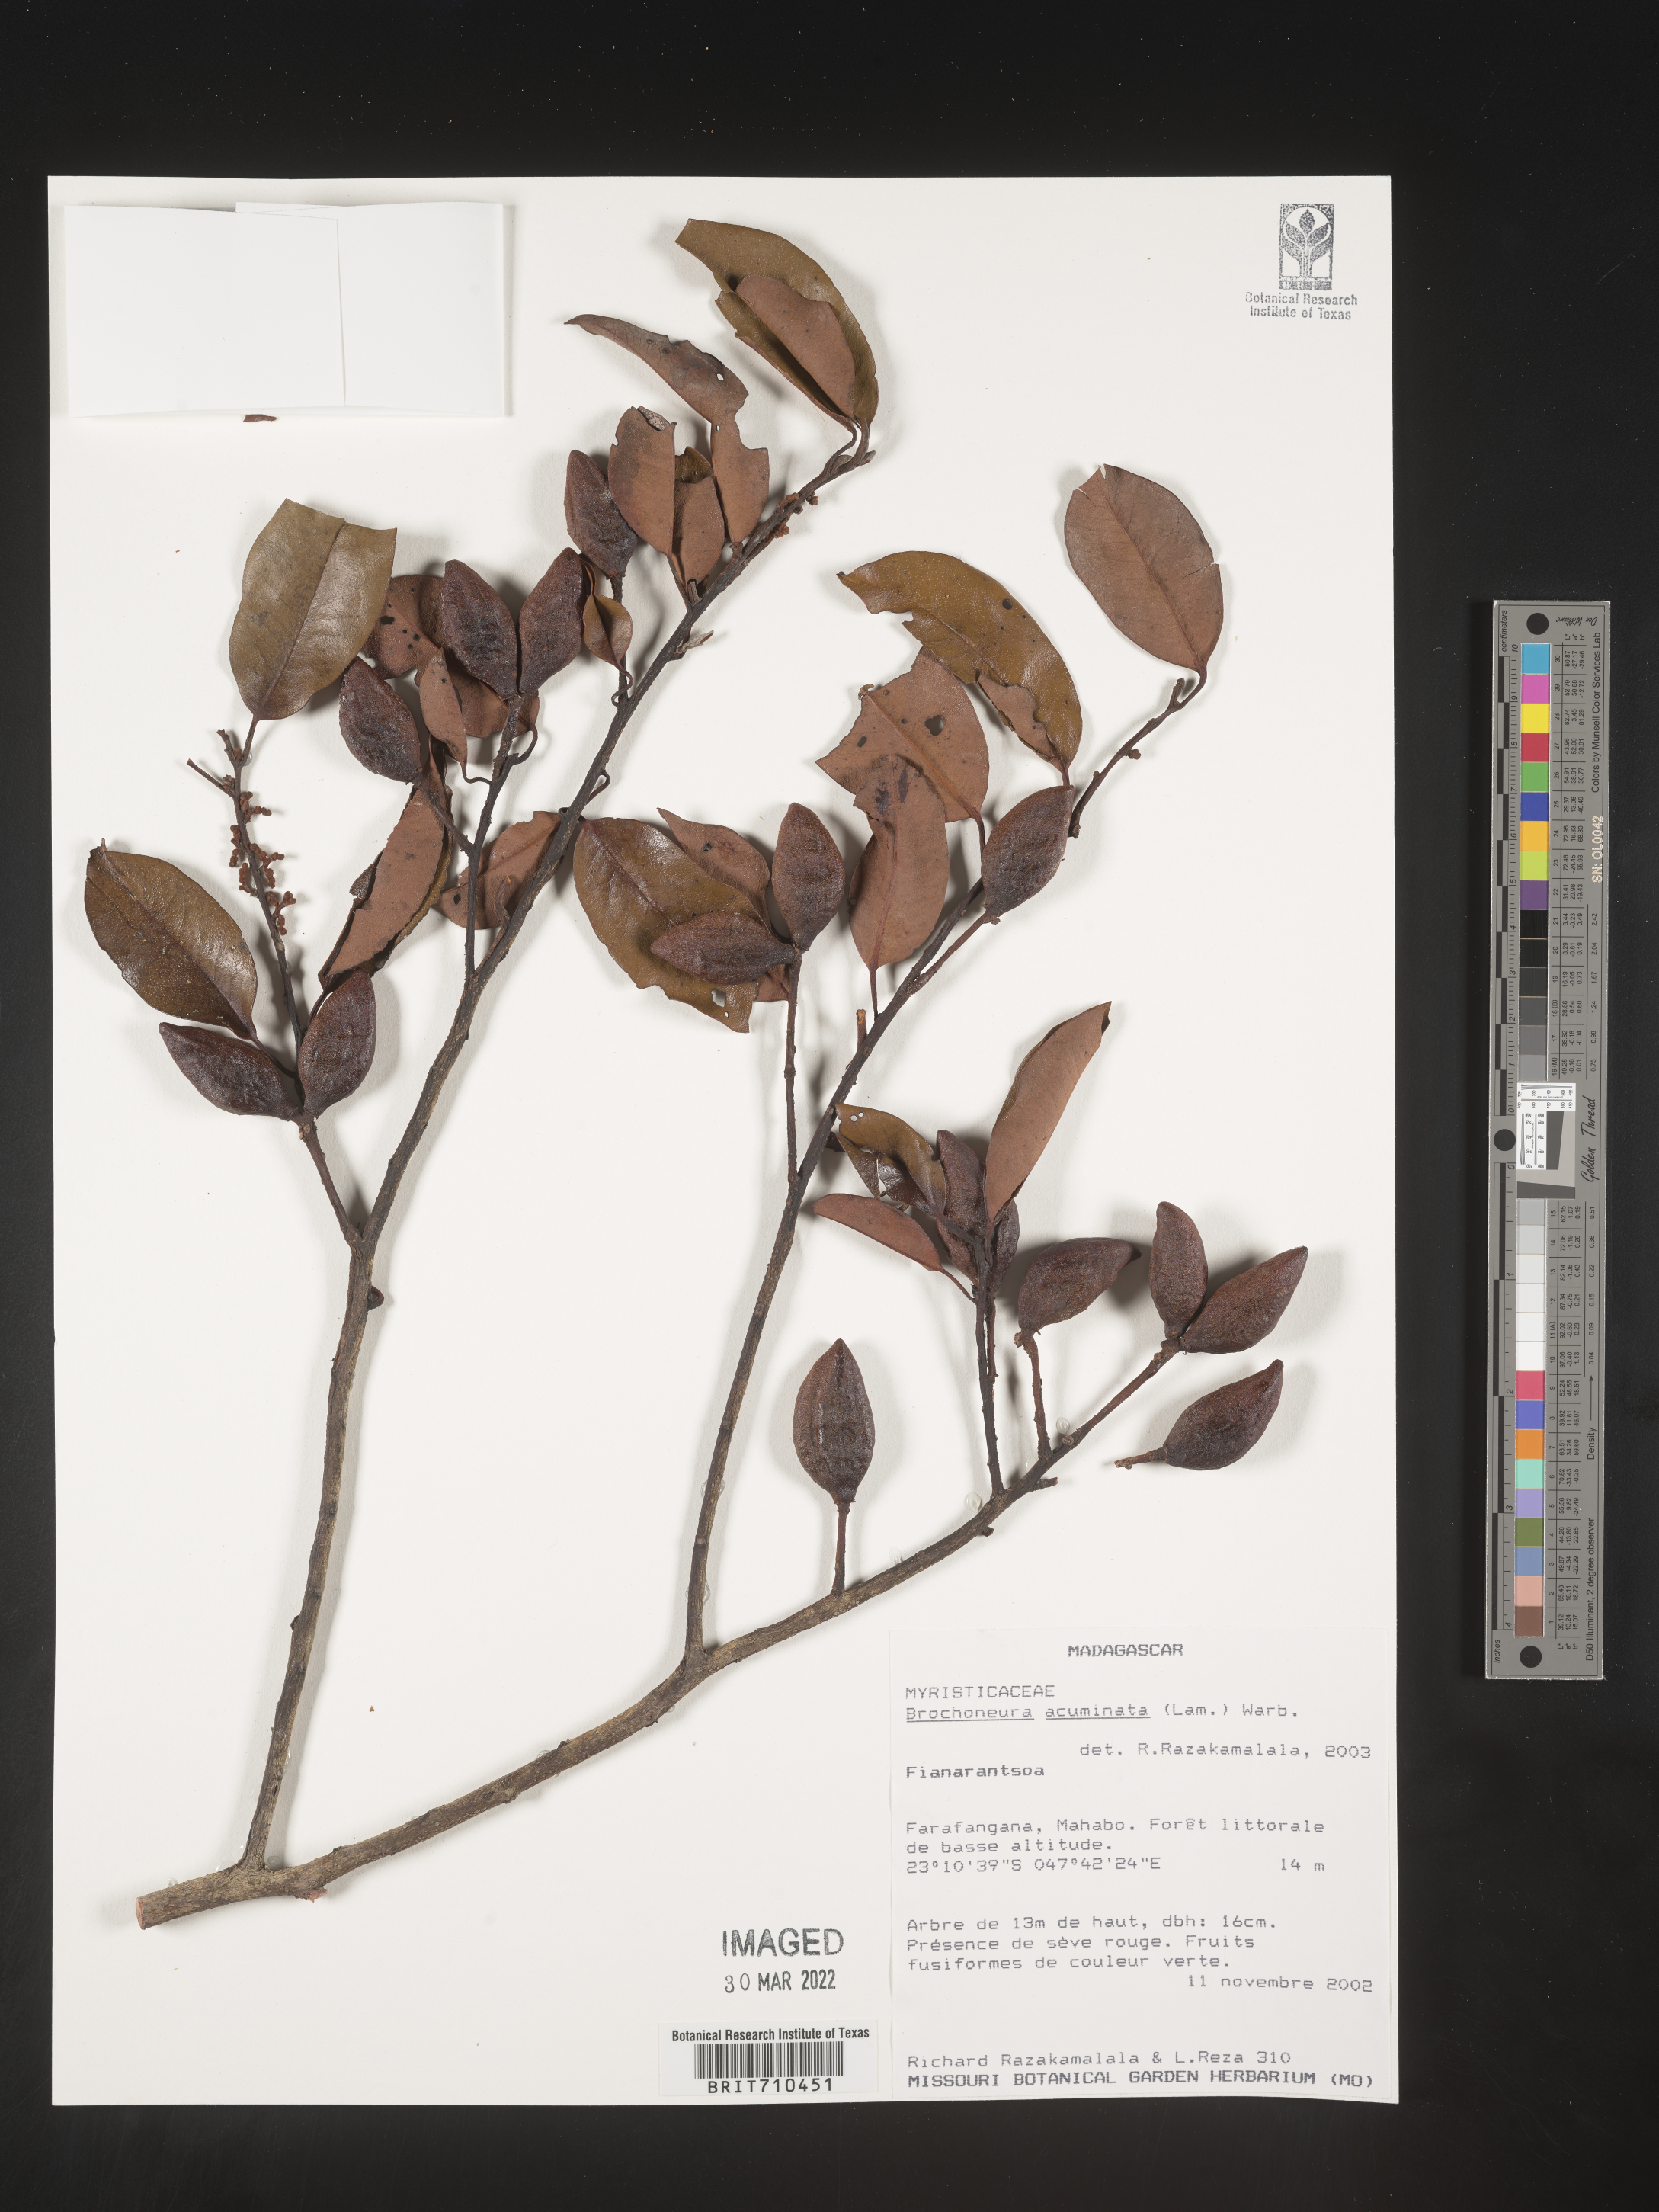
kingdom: Plantae
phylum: Tracheophyta
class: Magnoliopsida
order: Magnoliales
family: Myristicaceae
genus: Brochoneura
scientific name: Brochoneura
